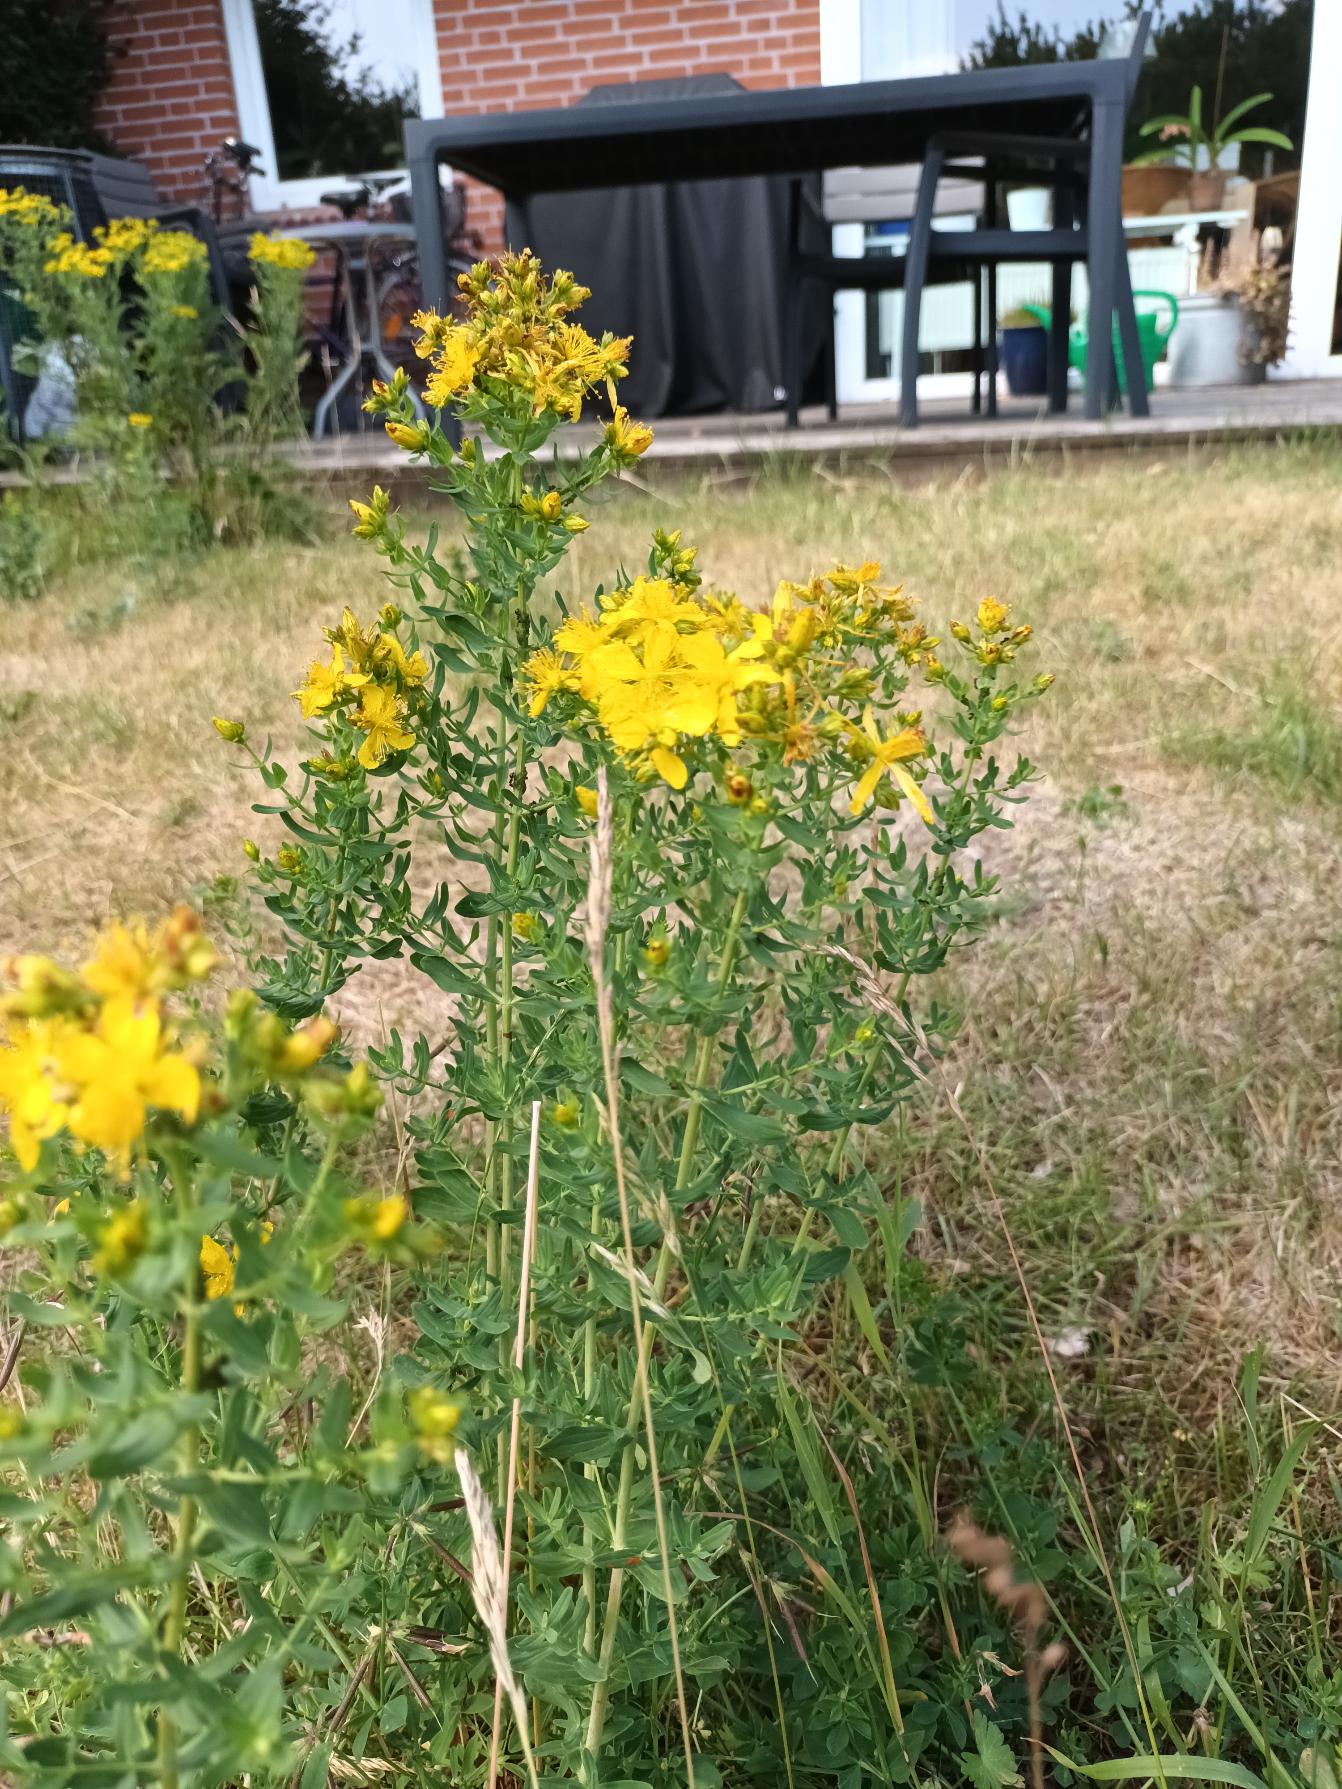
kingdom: Plantae
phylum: Tracheophyta
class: Magnoliopsida
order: Malpighiales
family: Hypericaceae
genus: Hypericum
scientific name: Hypericum perforatum
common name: Prikbladet perikon
